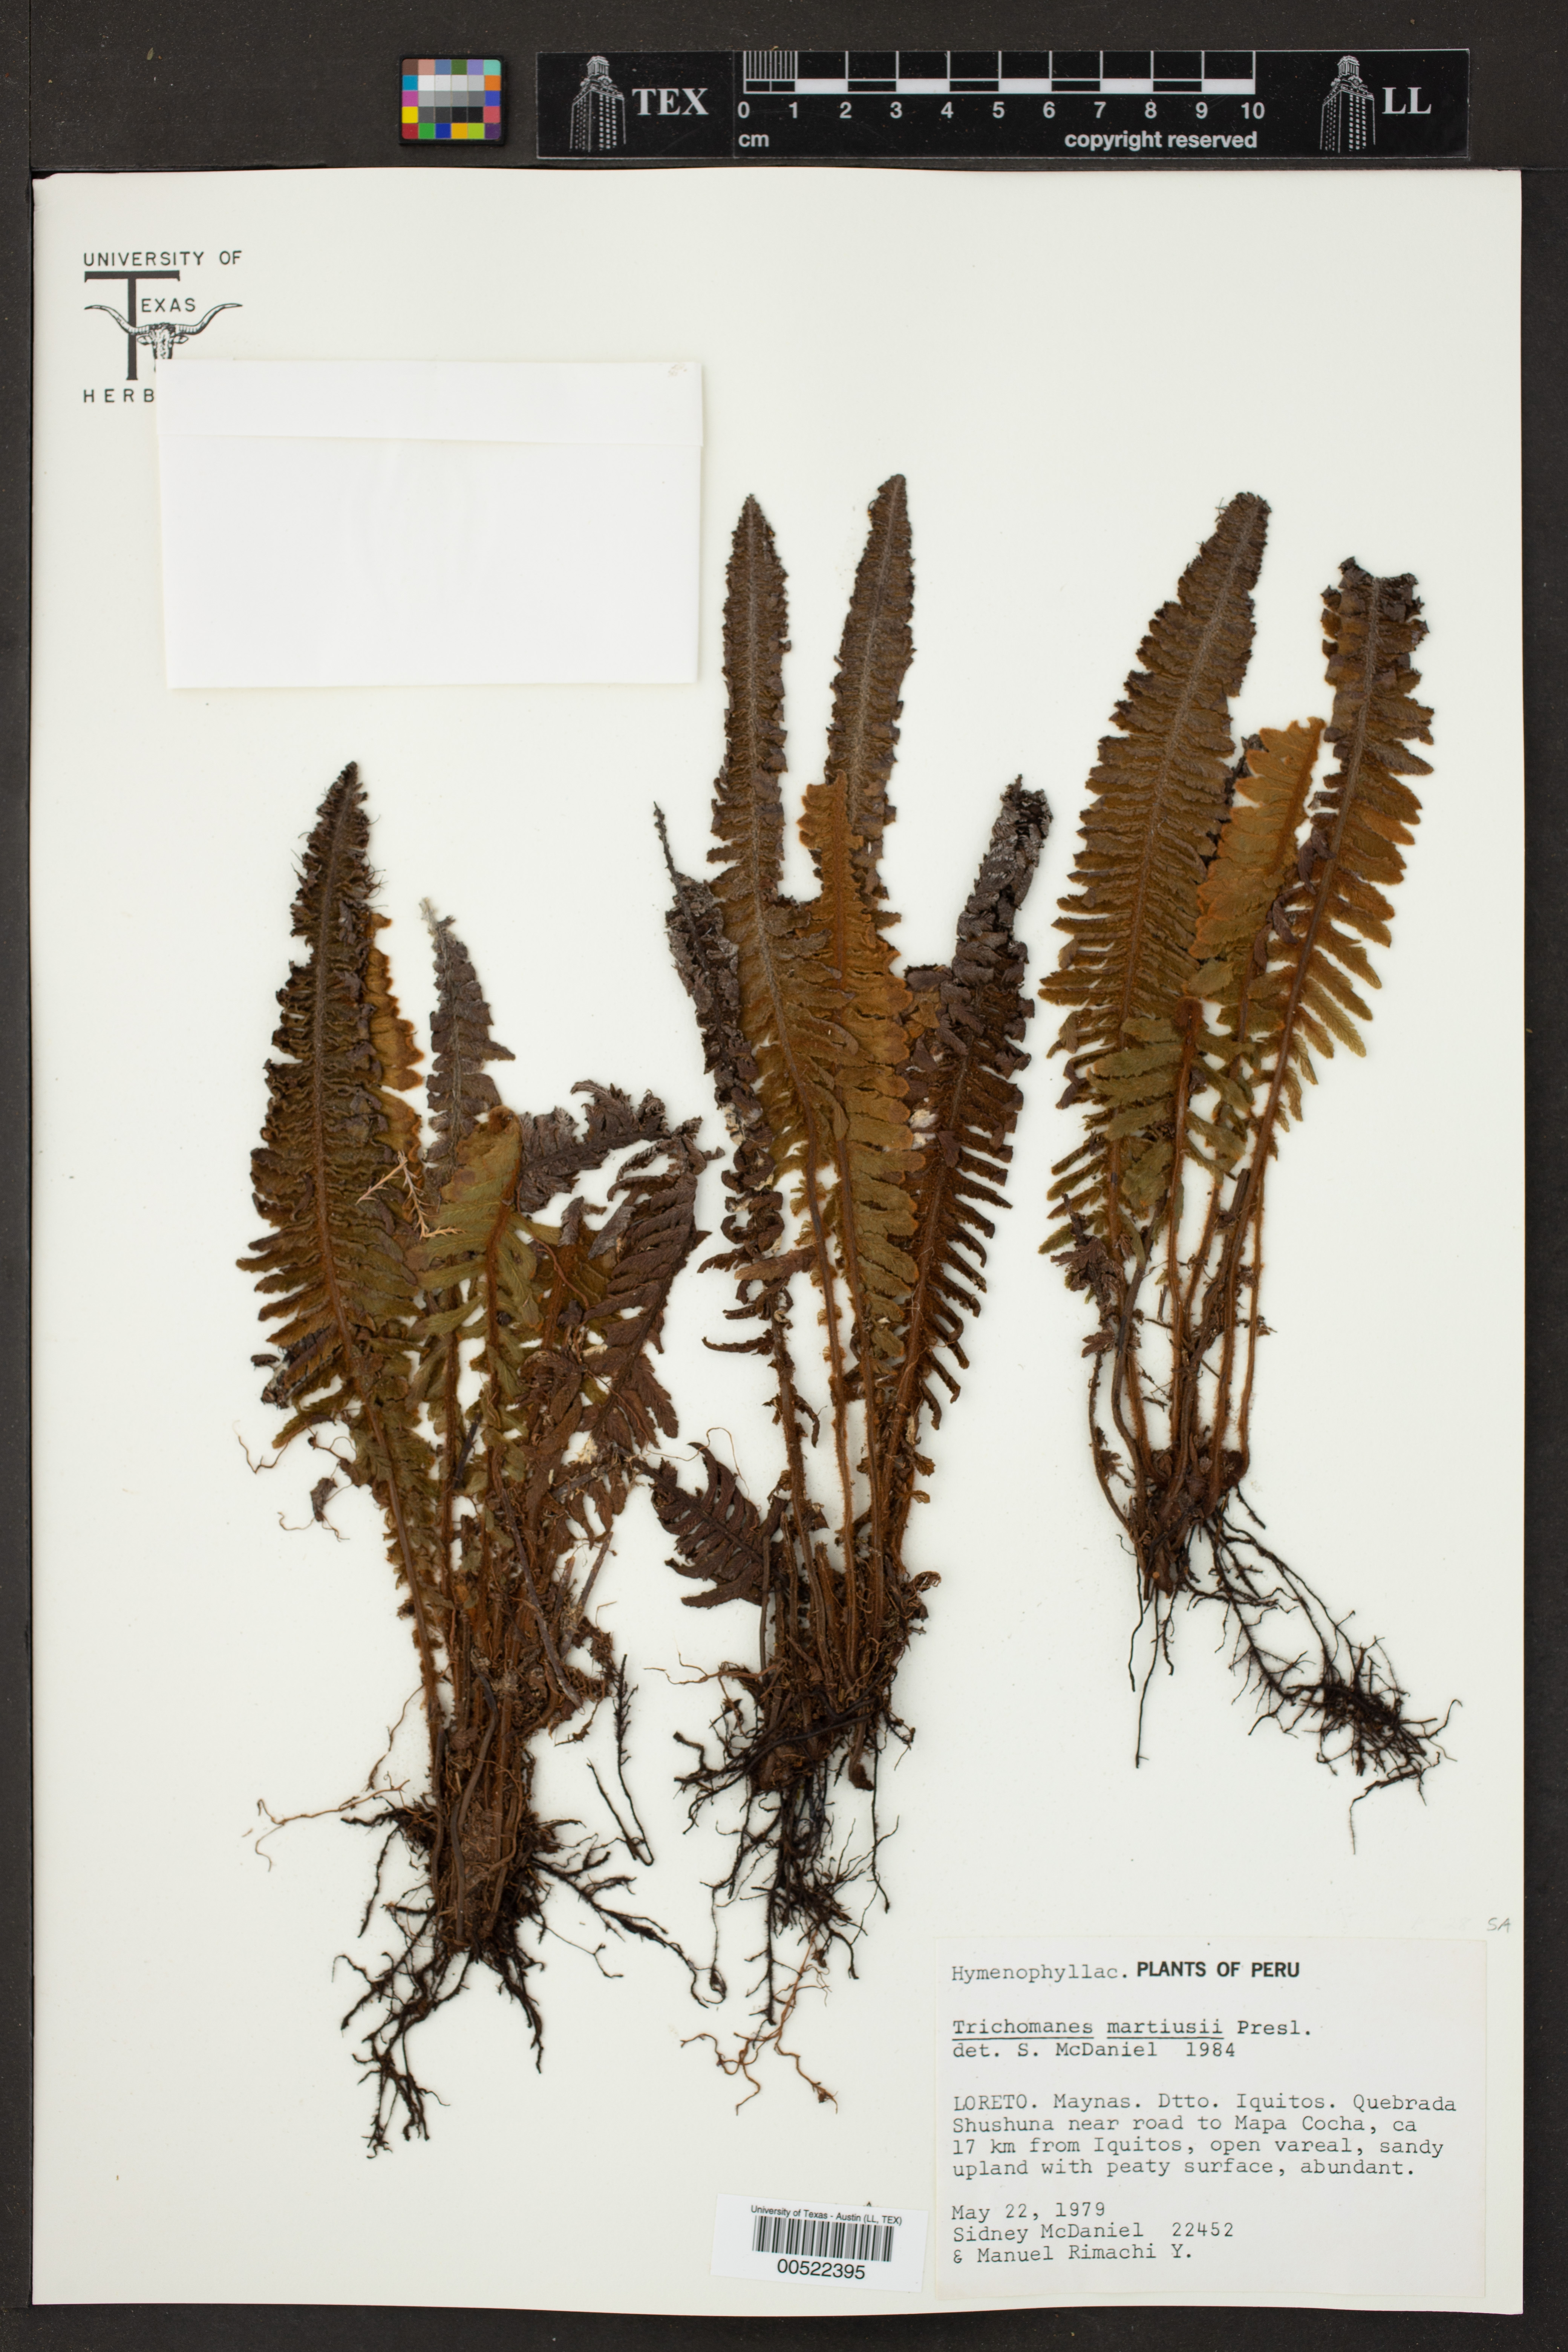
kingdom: Plantae
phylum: Tracheophyta
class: Polypodiopsida
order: Hymenophyllales
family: Hymenophyllaceae
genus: Trichomanes
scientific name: Trichomanes martiusii
